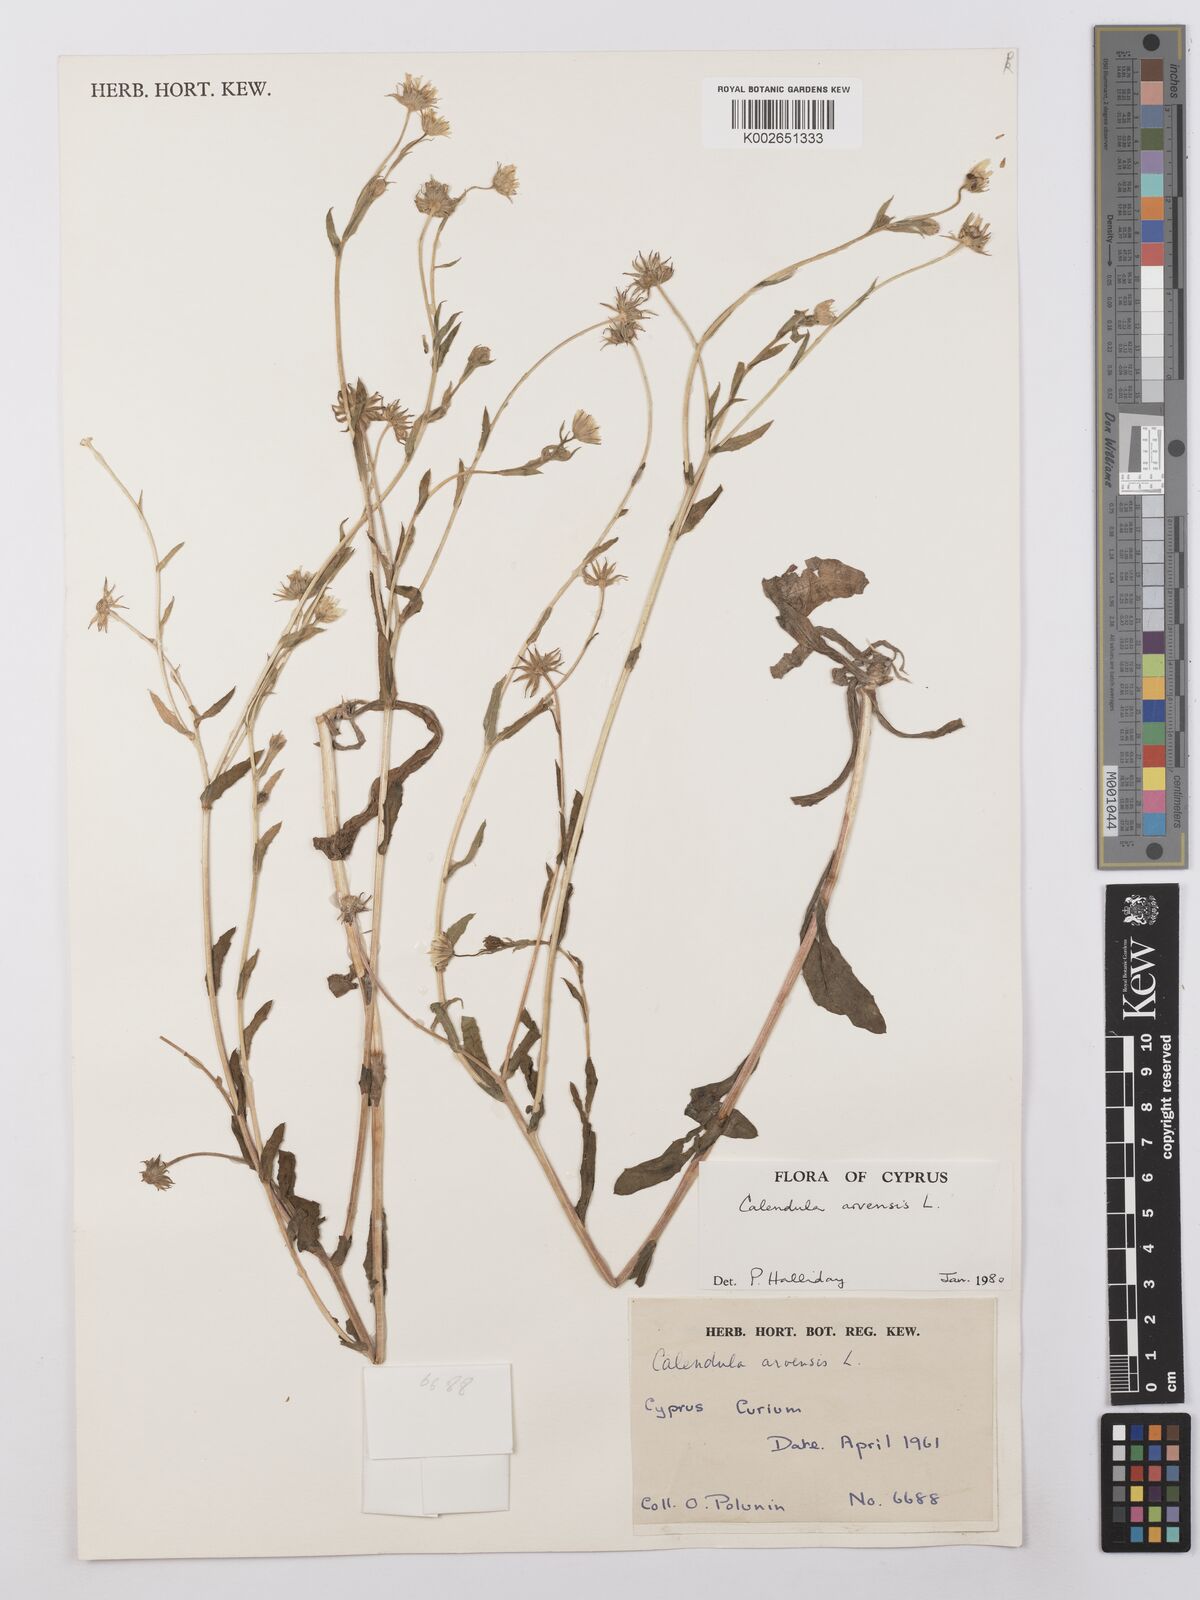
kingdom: Plantae
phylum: Tracheophyta
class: Magnoliopsida
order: Asterales
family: Asteraceae
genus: Calendula
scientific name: Calendula arvensis
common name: Field marigold
